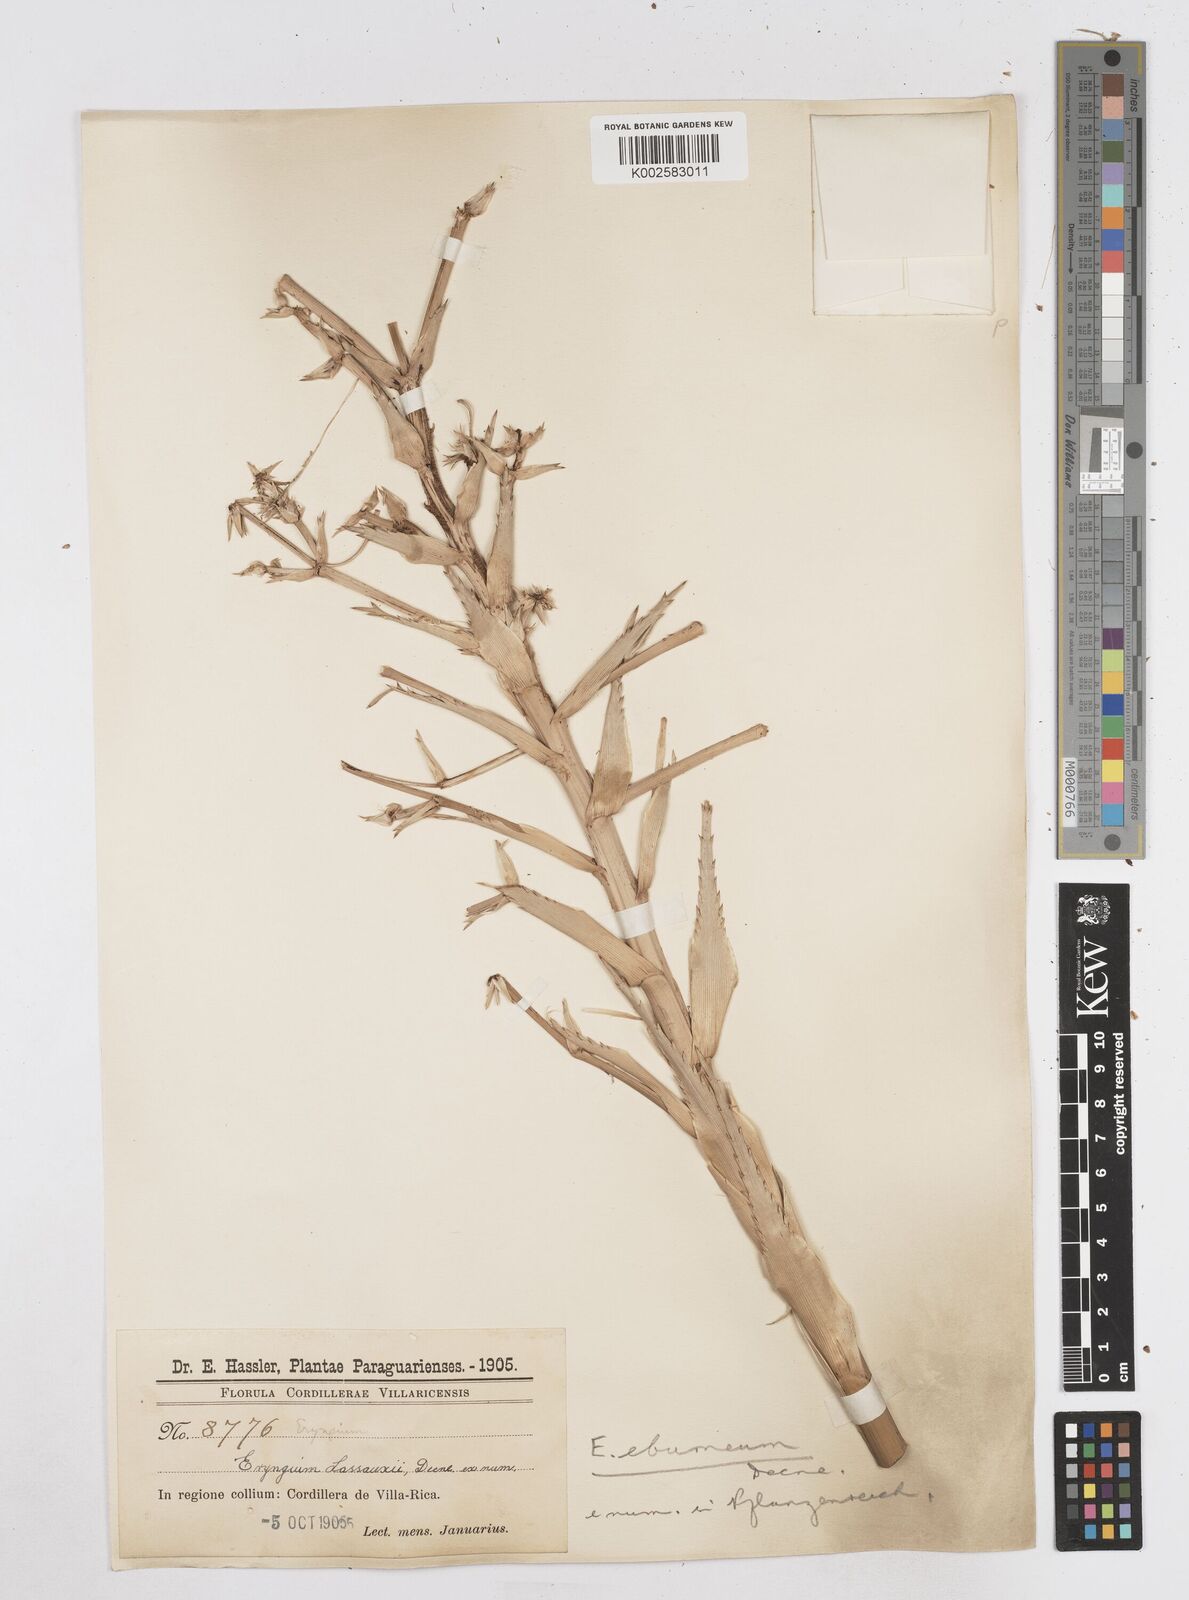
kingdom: Plantae
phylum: Tracheophyta
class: Magnoliopsida
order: Apiales
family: Apiaceae
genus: Eryngium
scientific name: Eryngium eburneum
